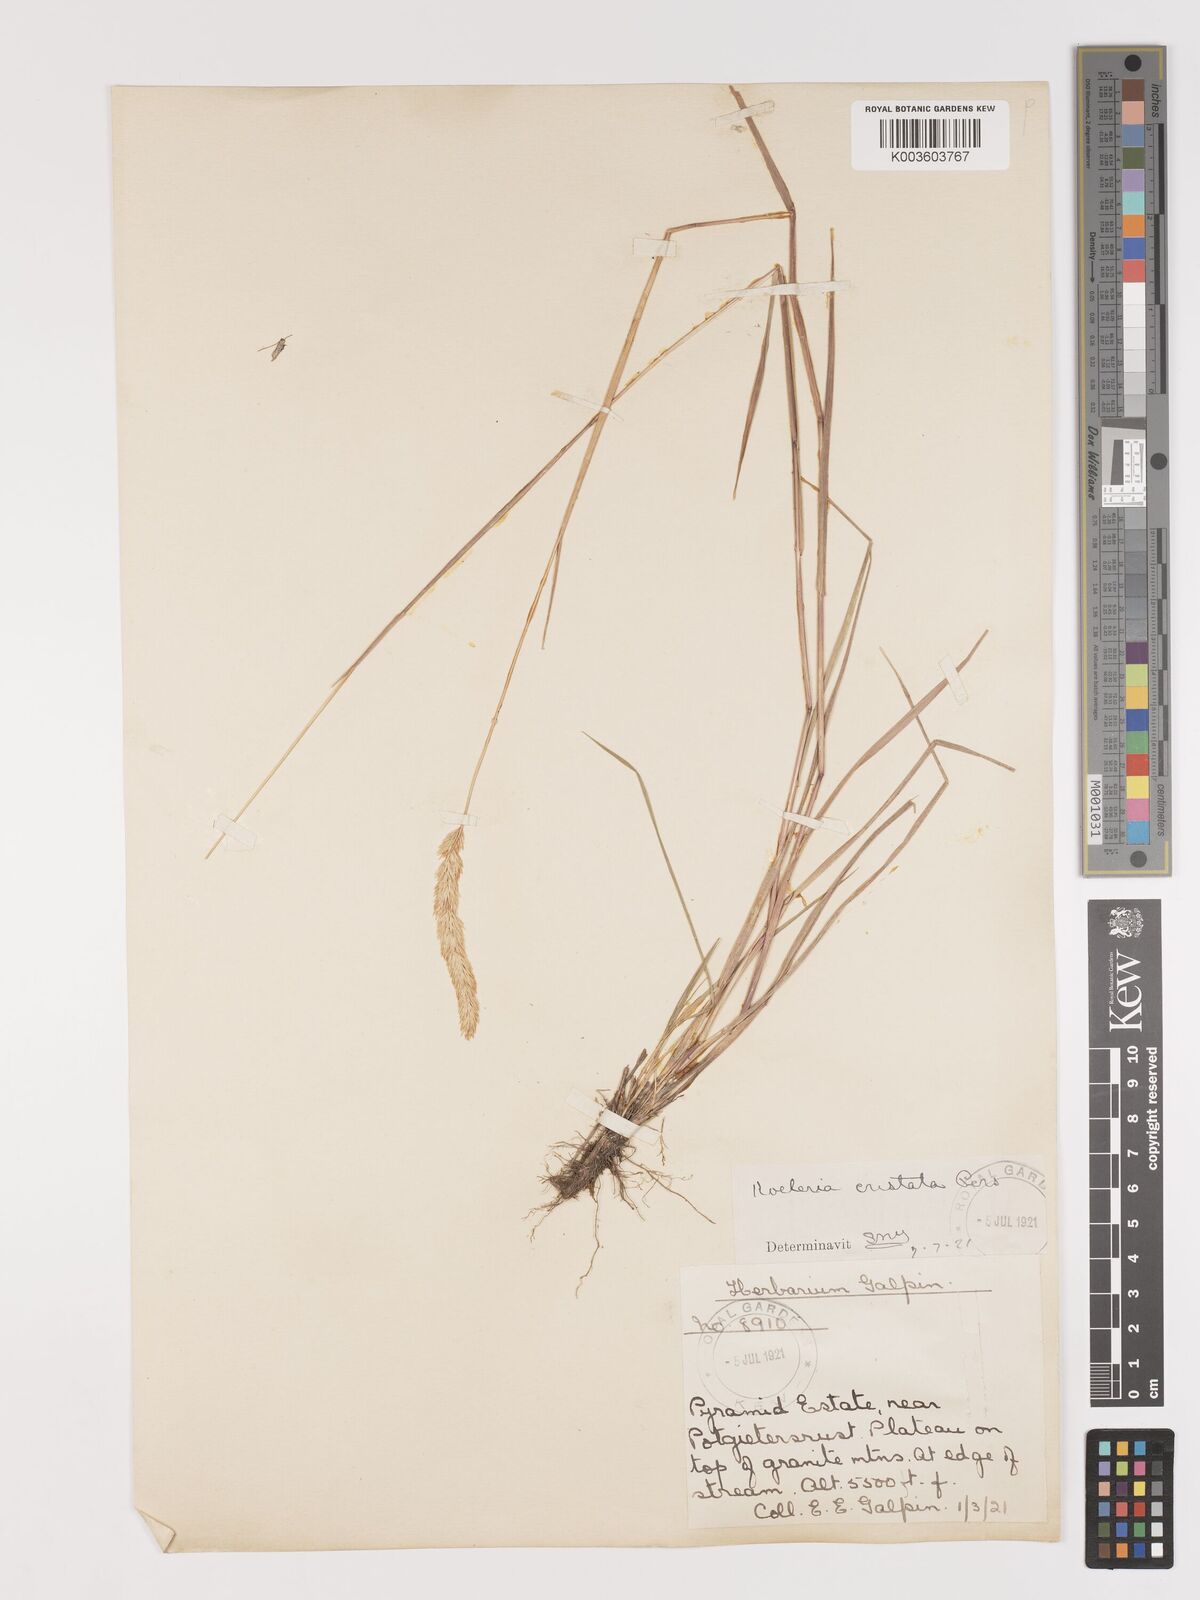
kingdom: Plantae
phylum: Tracheophyta
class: Liliopsida
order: Poales
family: Poaceae
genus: Agrostis
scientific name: Agrostis continuata
